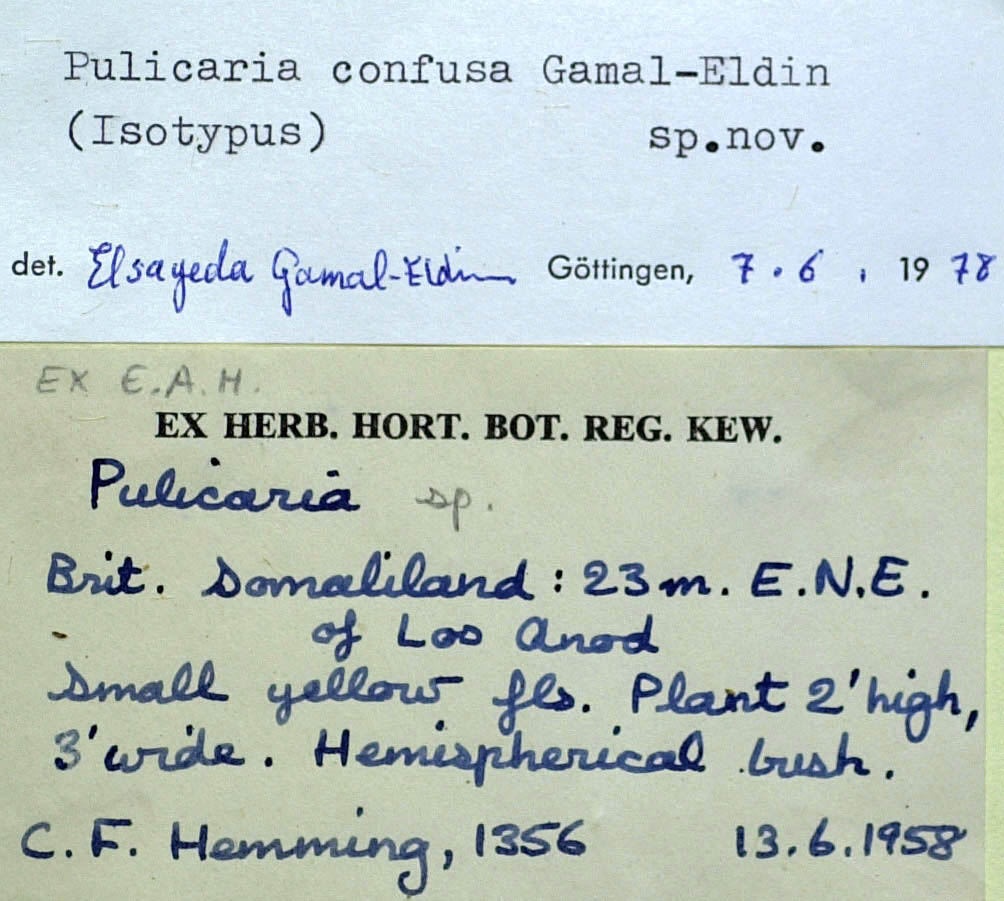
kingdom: Plantae
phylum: Tracheophyta
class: Magnoliopsida
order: Asterales
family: Asteraceae
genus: Pulicaria
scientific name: Pulicaria confusa
